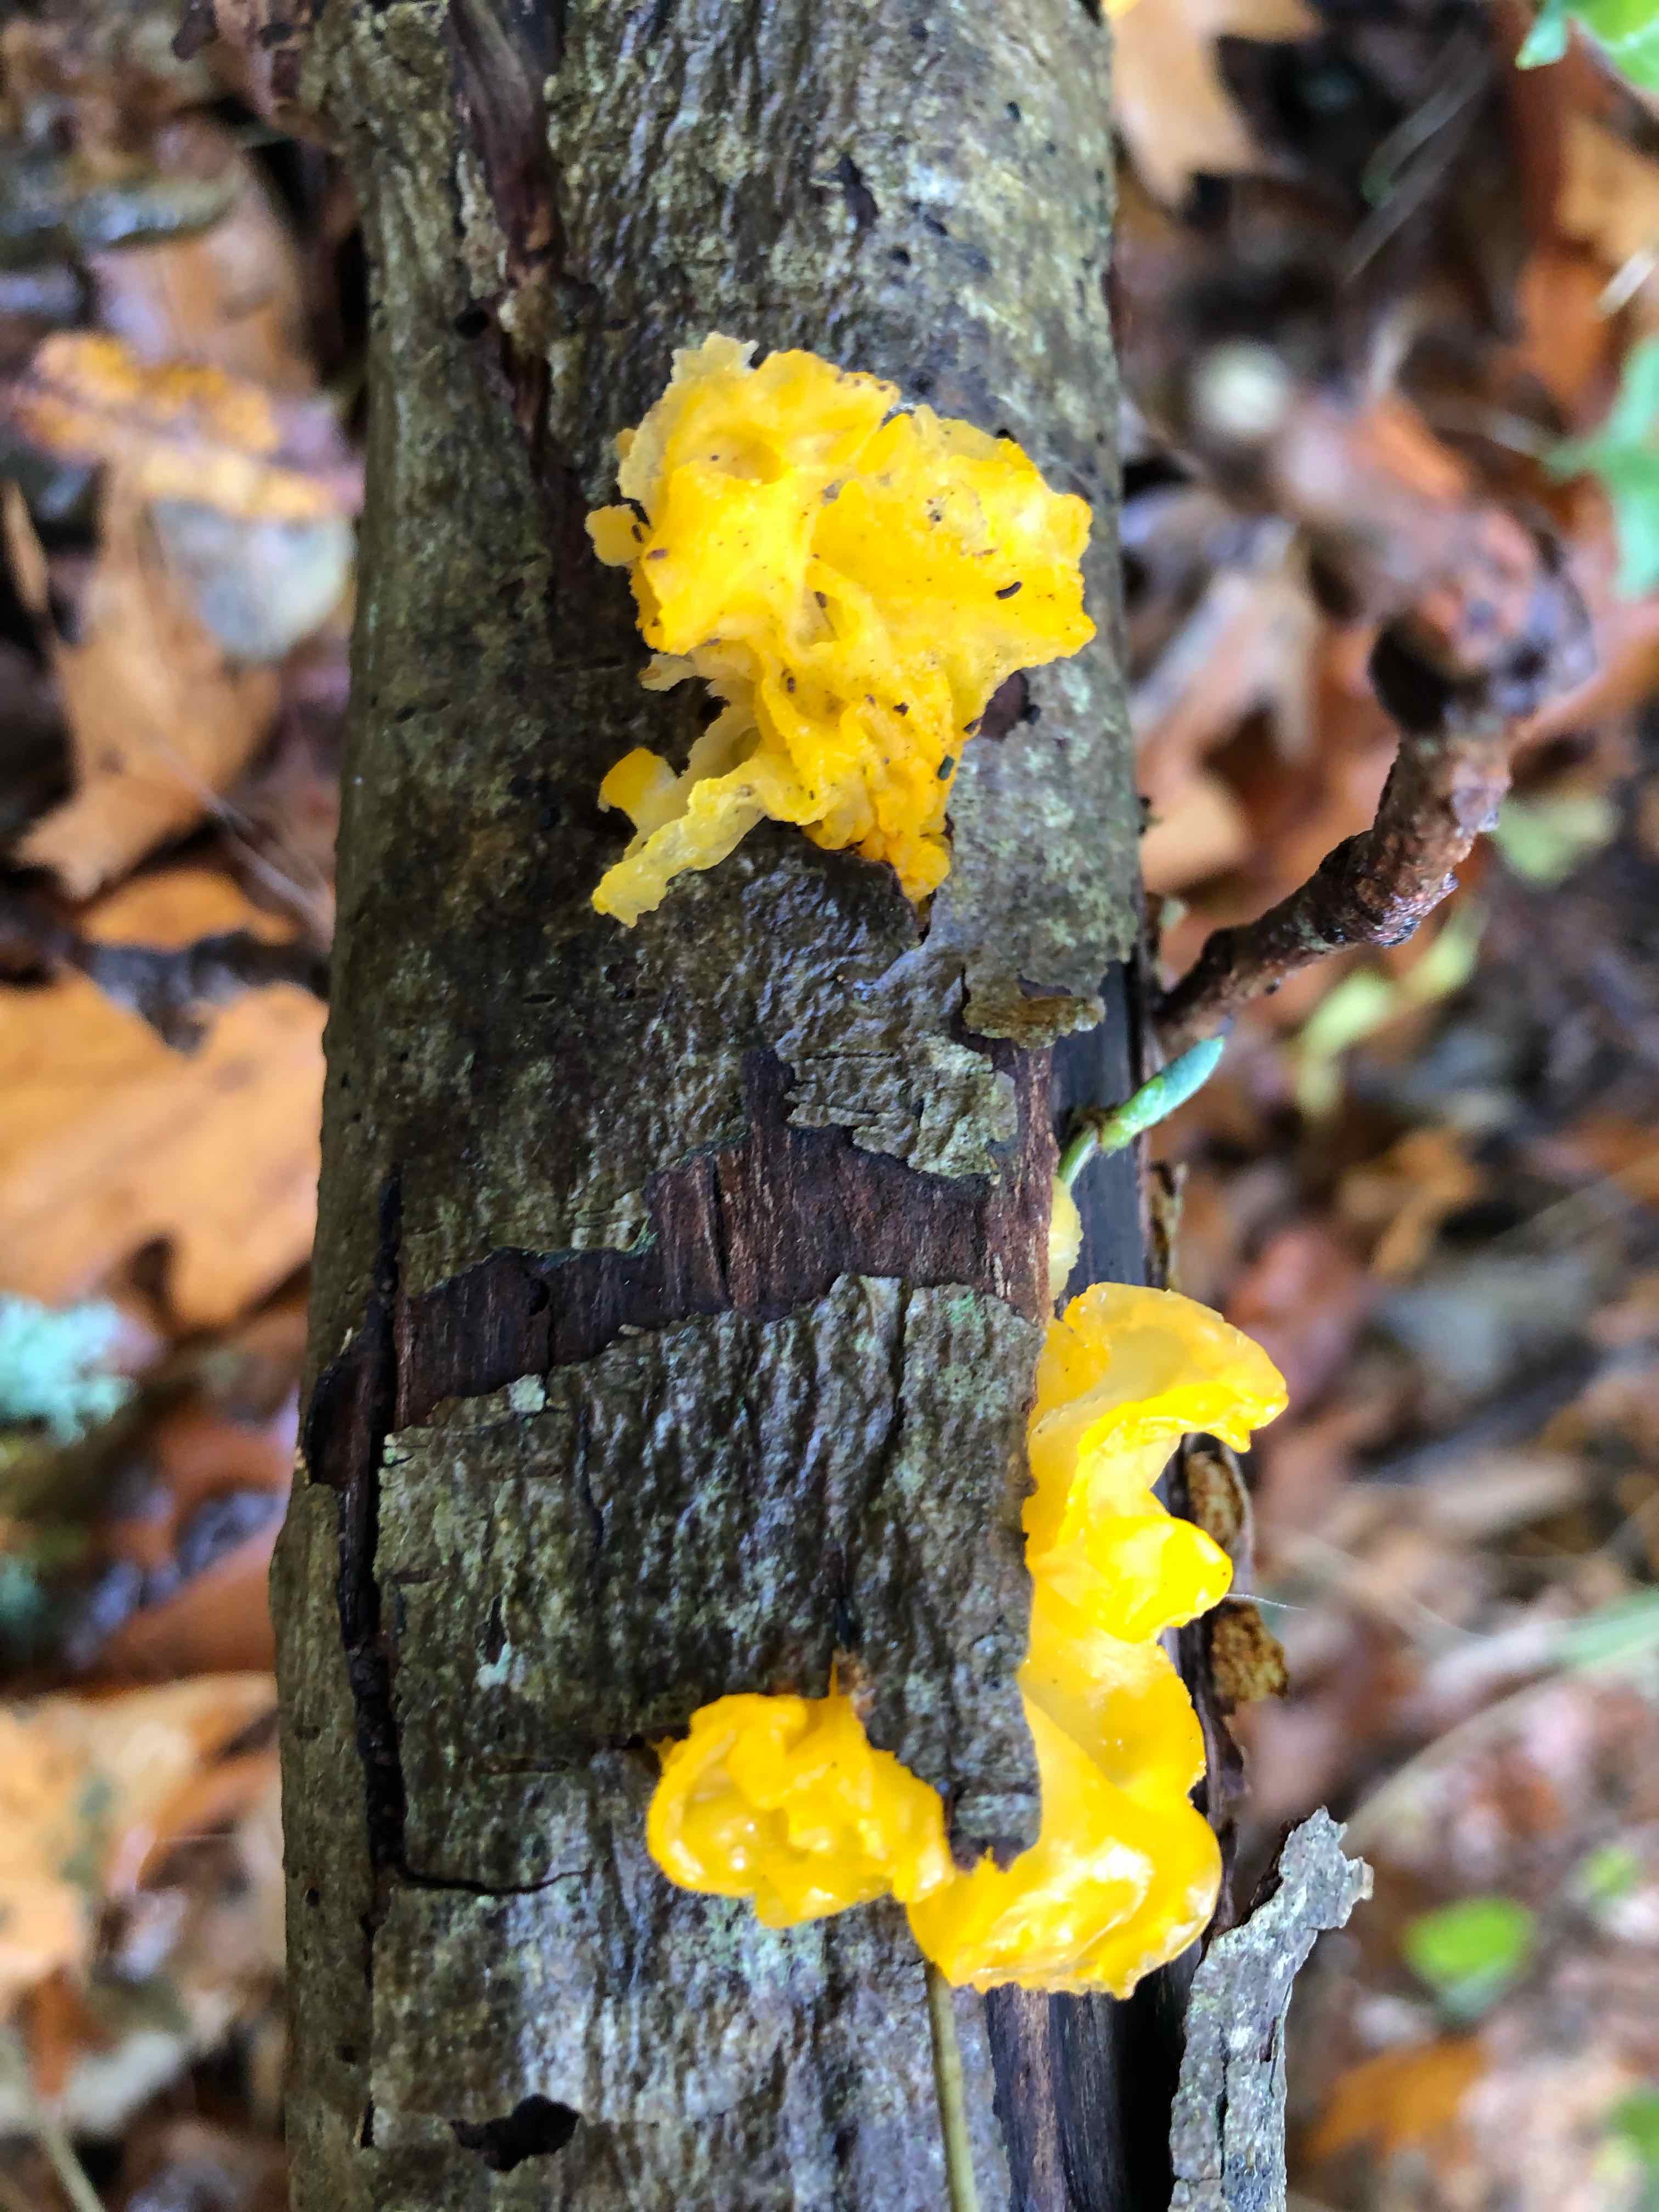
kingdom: Fungi
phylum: Basidiomycota
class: Tremellomycetes
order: Tremellales
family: Tremellaceae
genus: Tremella
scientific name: Tremella mesenterica
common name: gul bævresvamp
